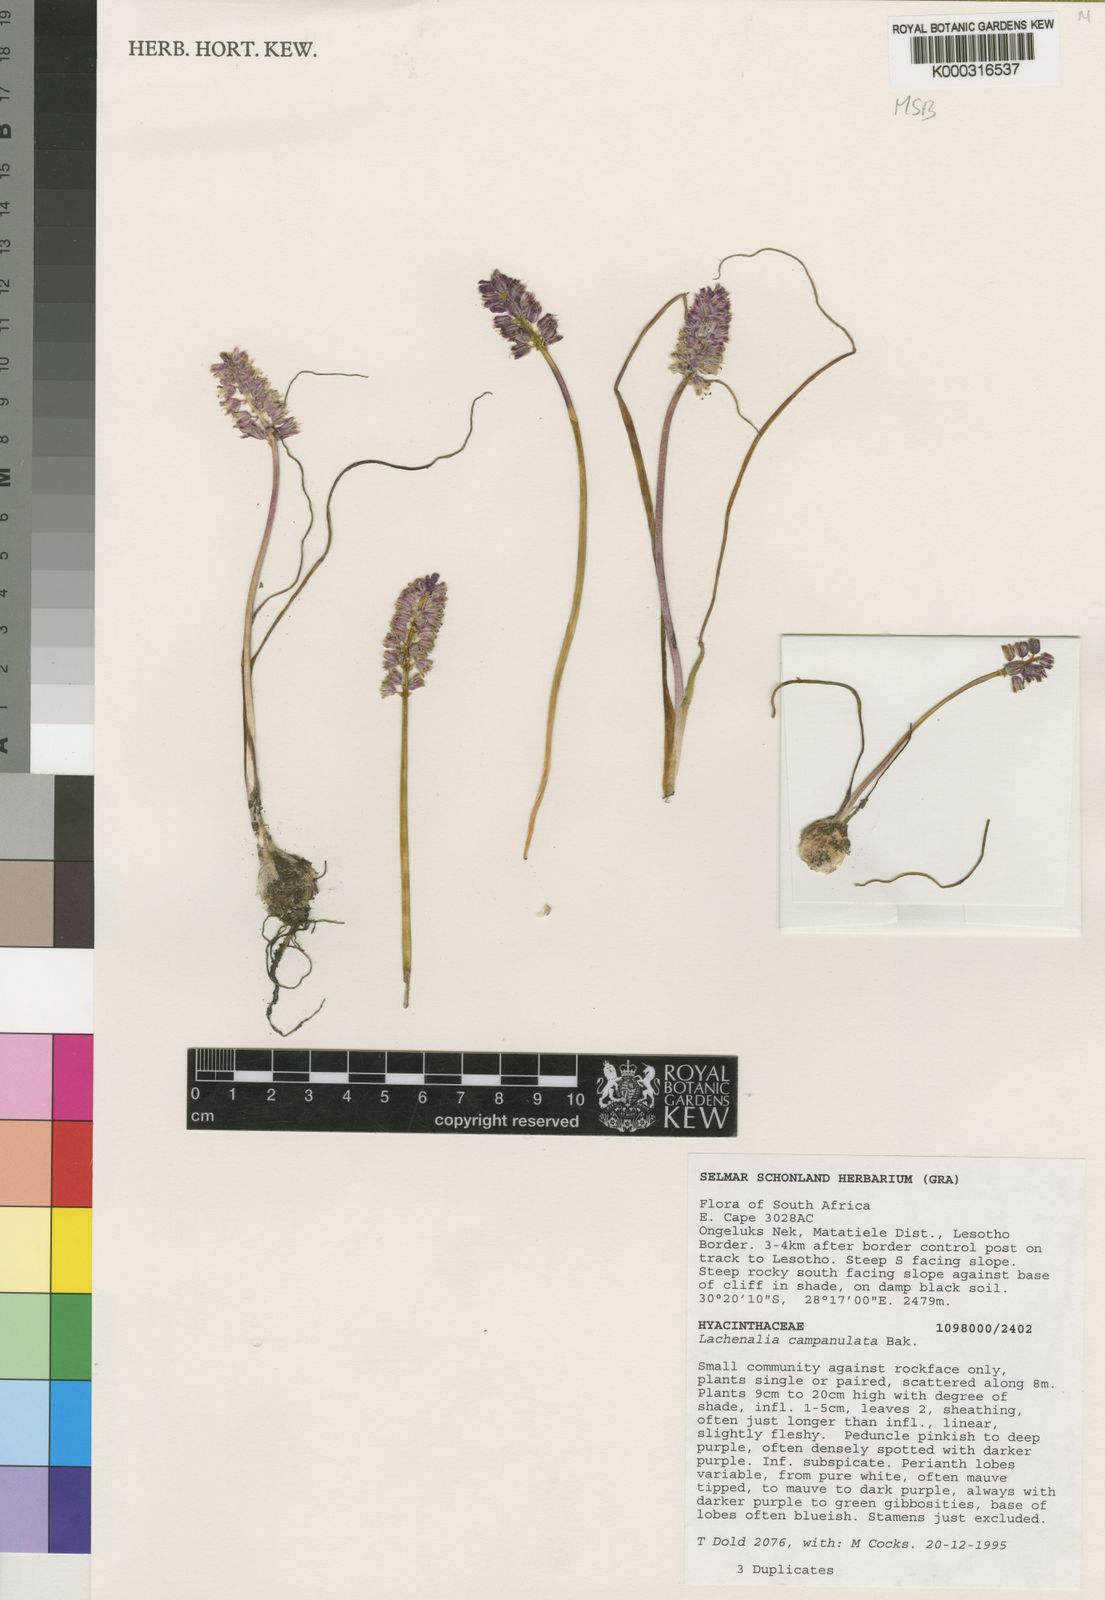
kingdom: Plantae
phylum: Tracheophyta
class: Liliopsida
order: Asparagales
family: Asparagaceae
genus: Lachenalia
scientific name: Lachenalia campanulata
